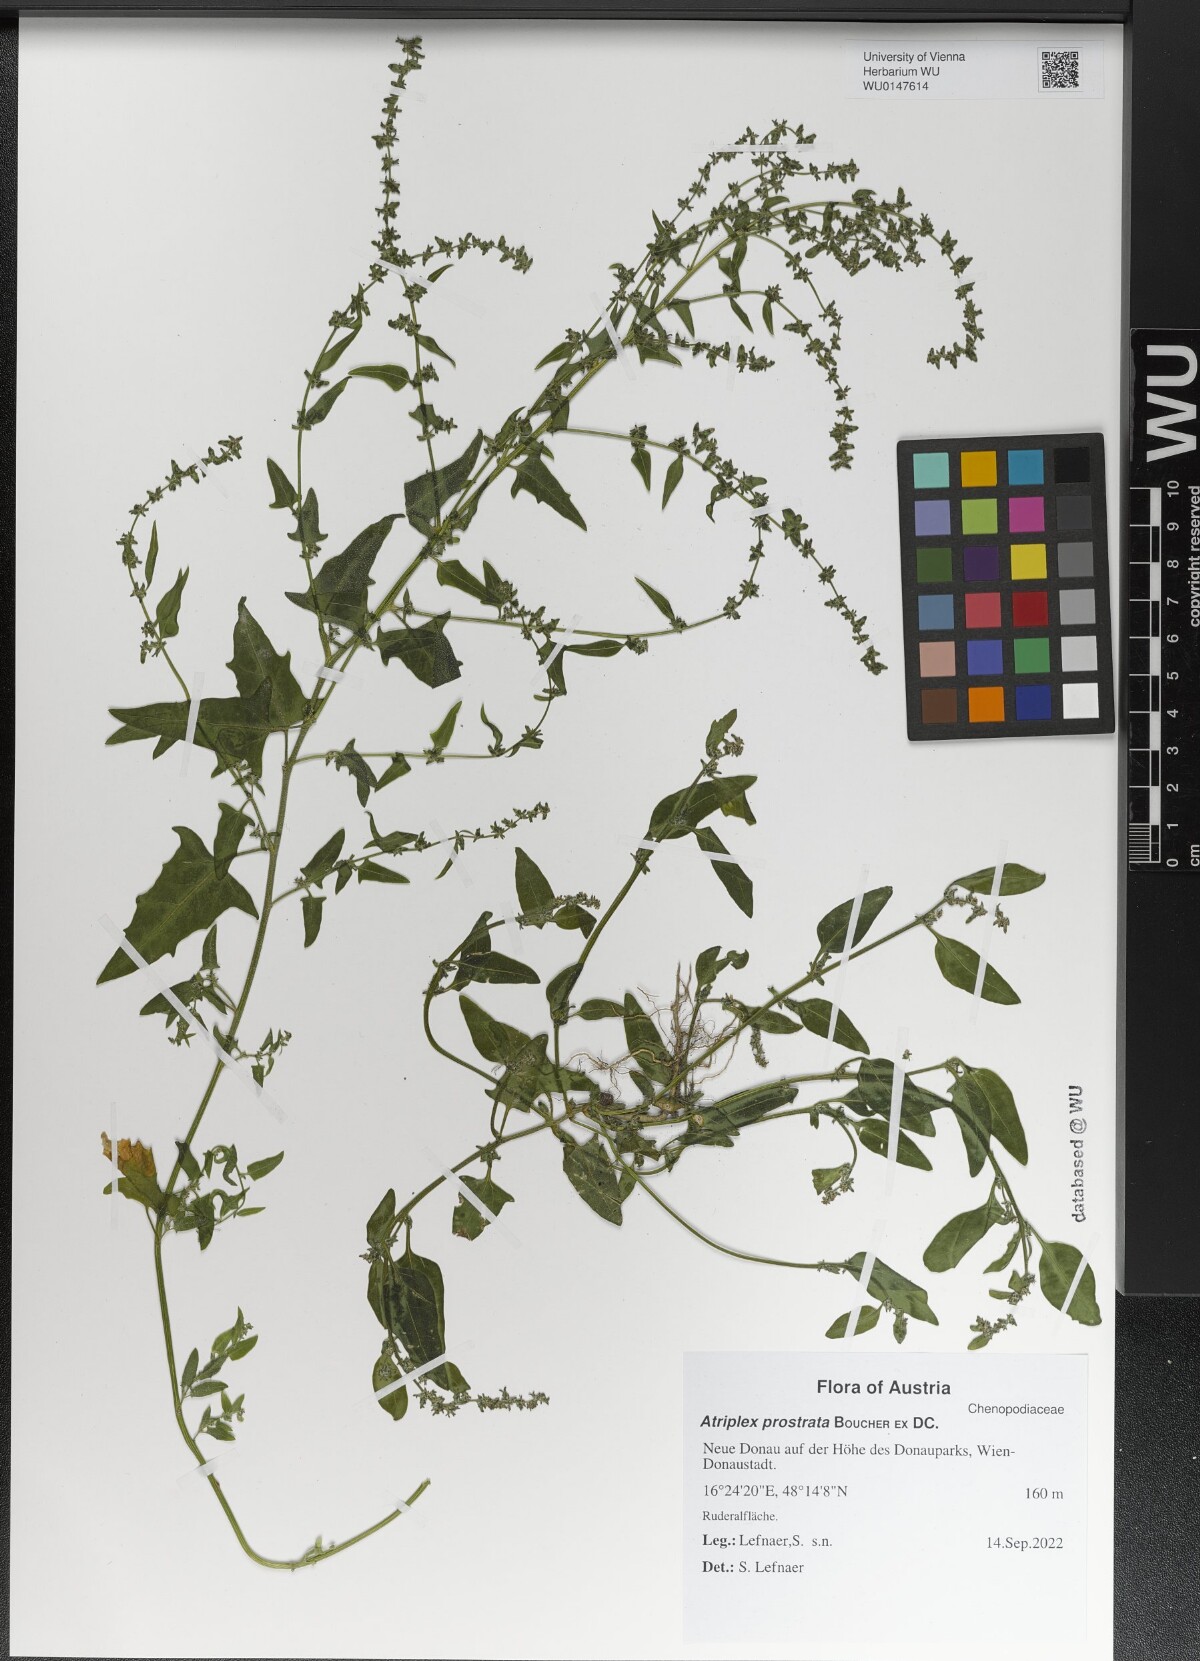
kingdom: Plantae
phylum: Tracheophyta
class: Magnoliopsida
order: Caryophyllales
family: Amaranthaceae
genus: Atriplex
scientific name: Atriplex prostrata
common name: Spear-leaved orache
